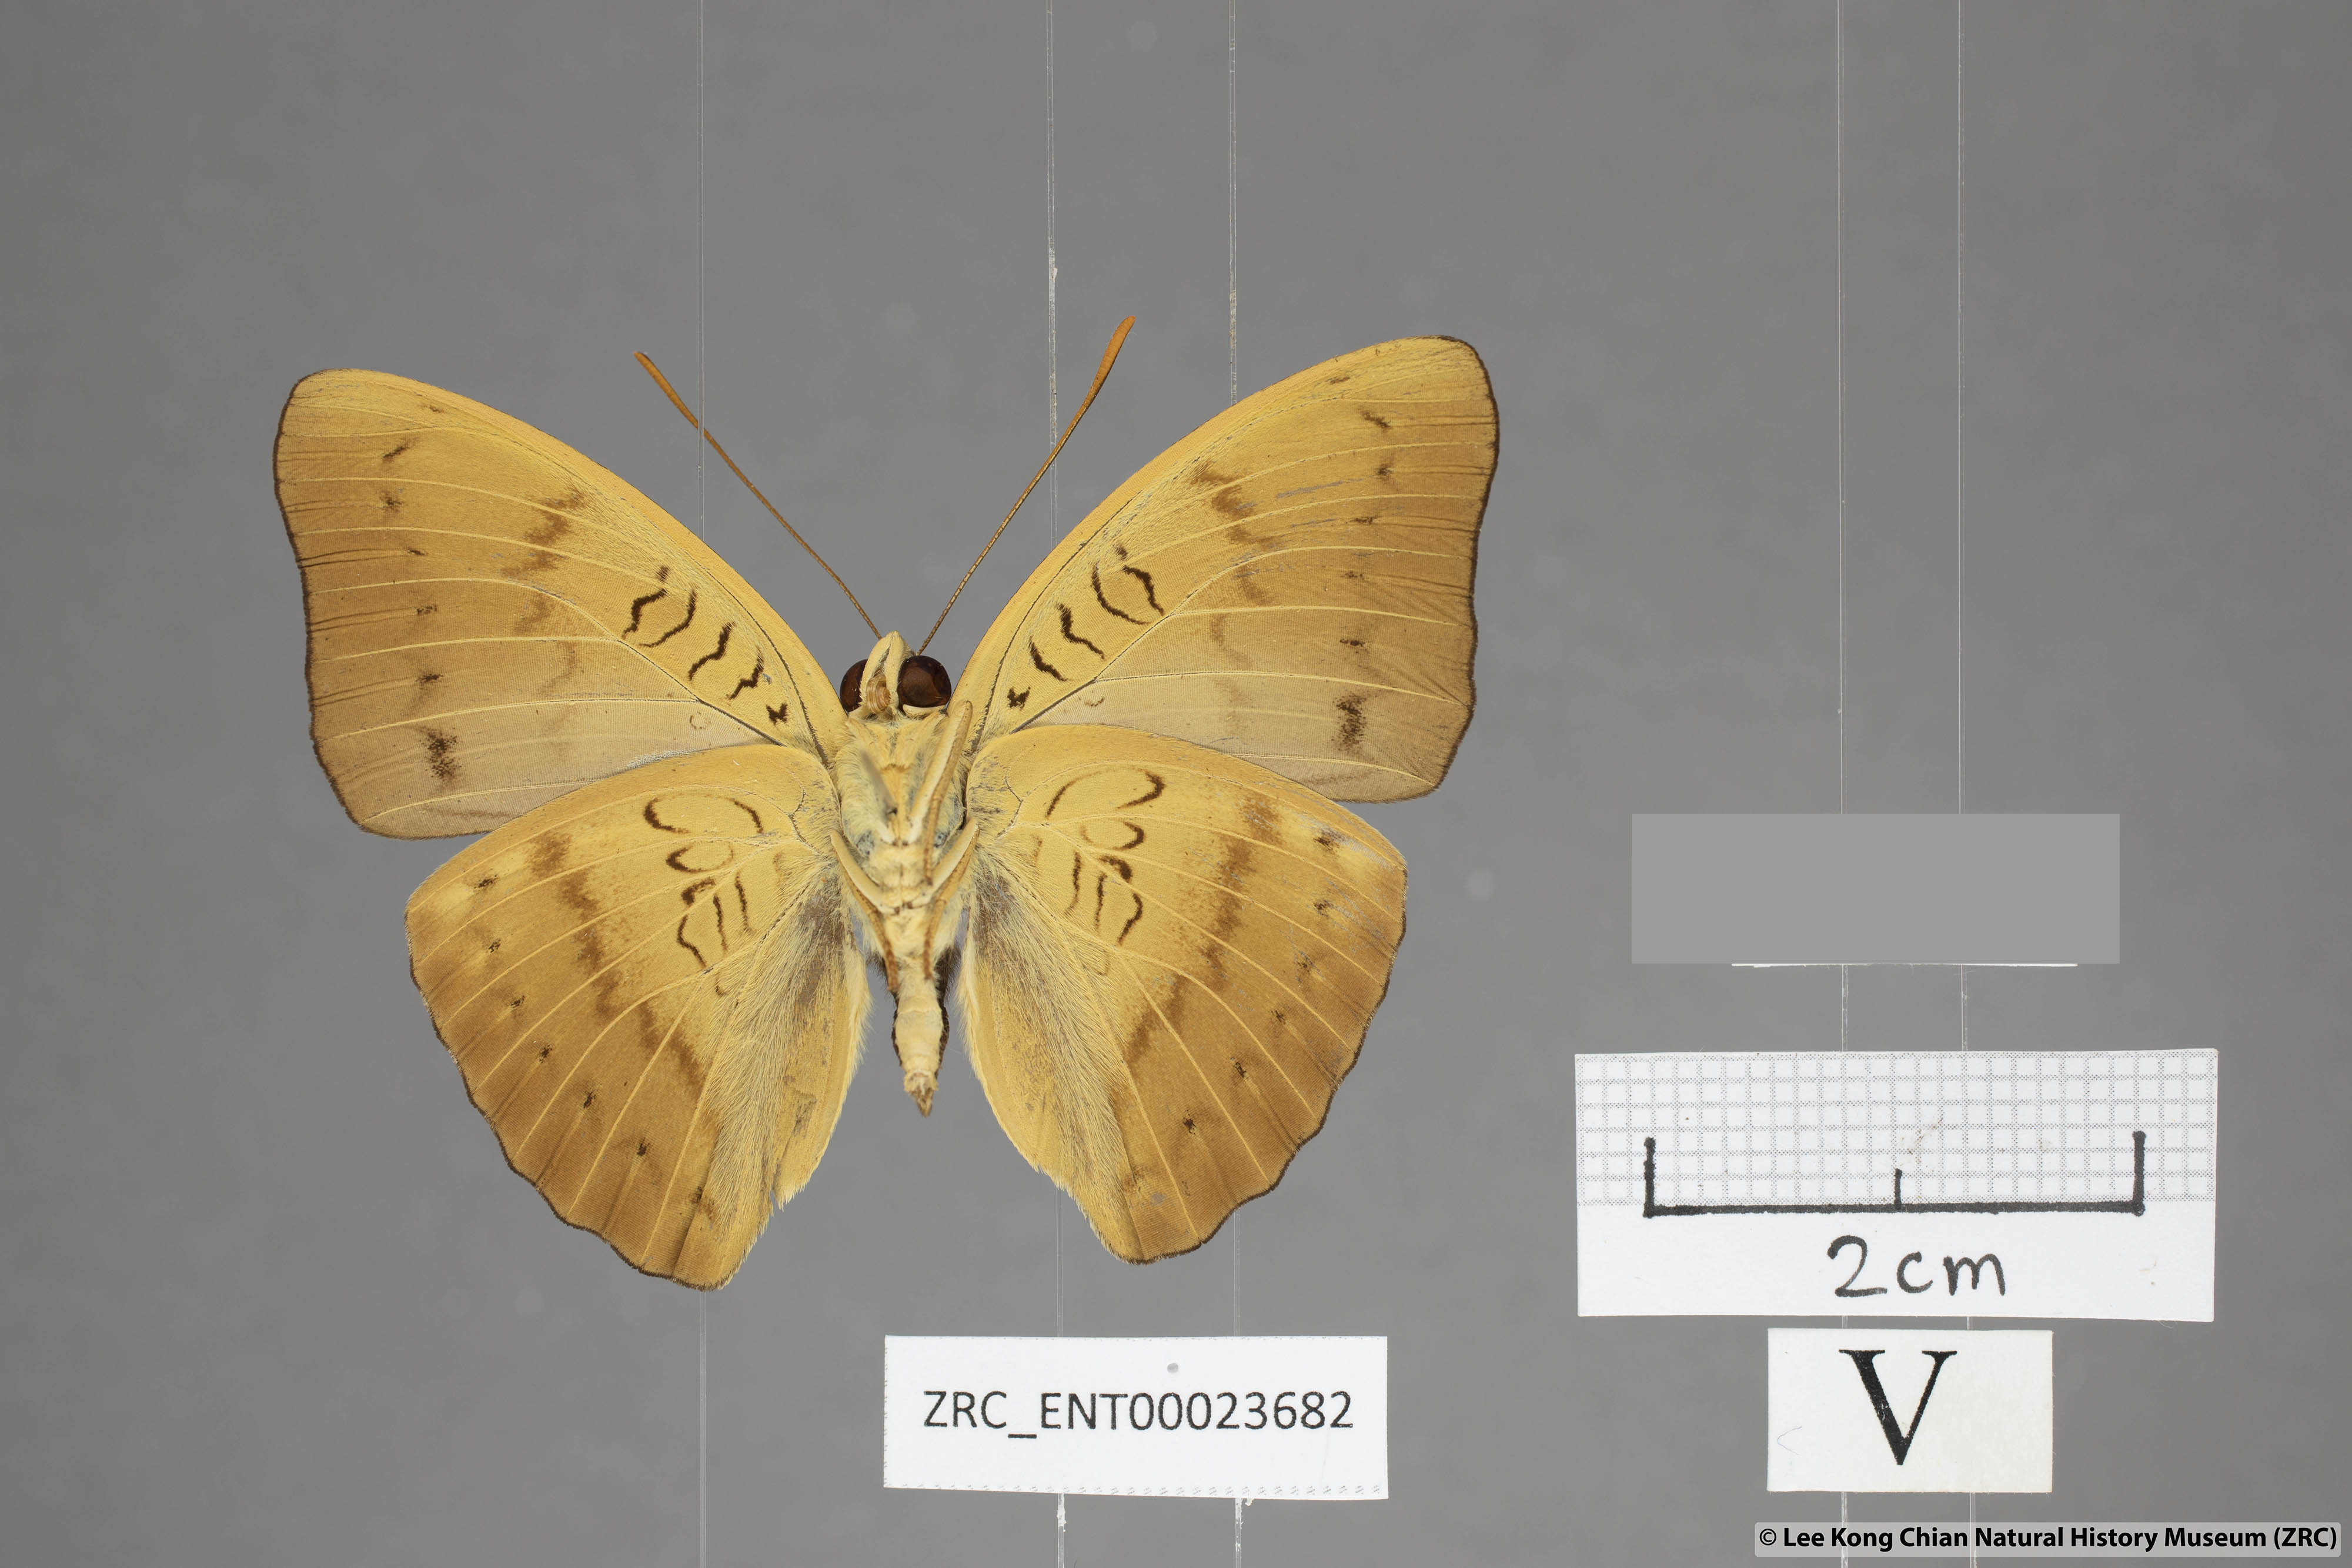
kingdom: Animalia
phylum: Arthropoda
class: Insecta
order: Lepidoptera
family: Nymphalidae
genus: Euthalia
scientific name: Euthalia kanda
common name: Yellow baron
